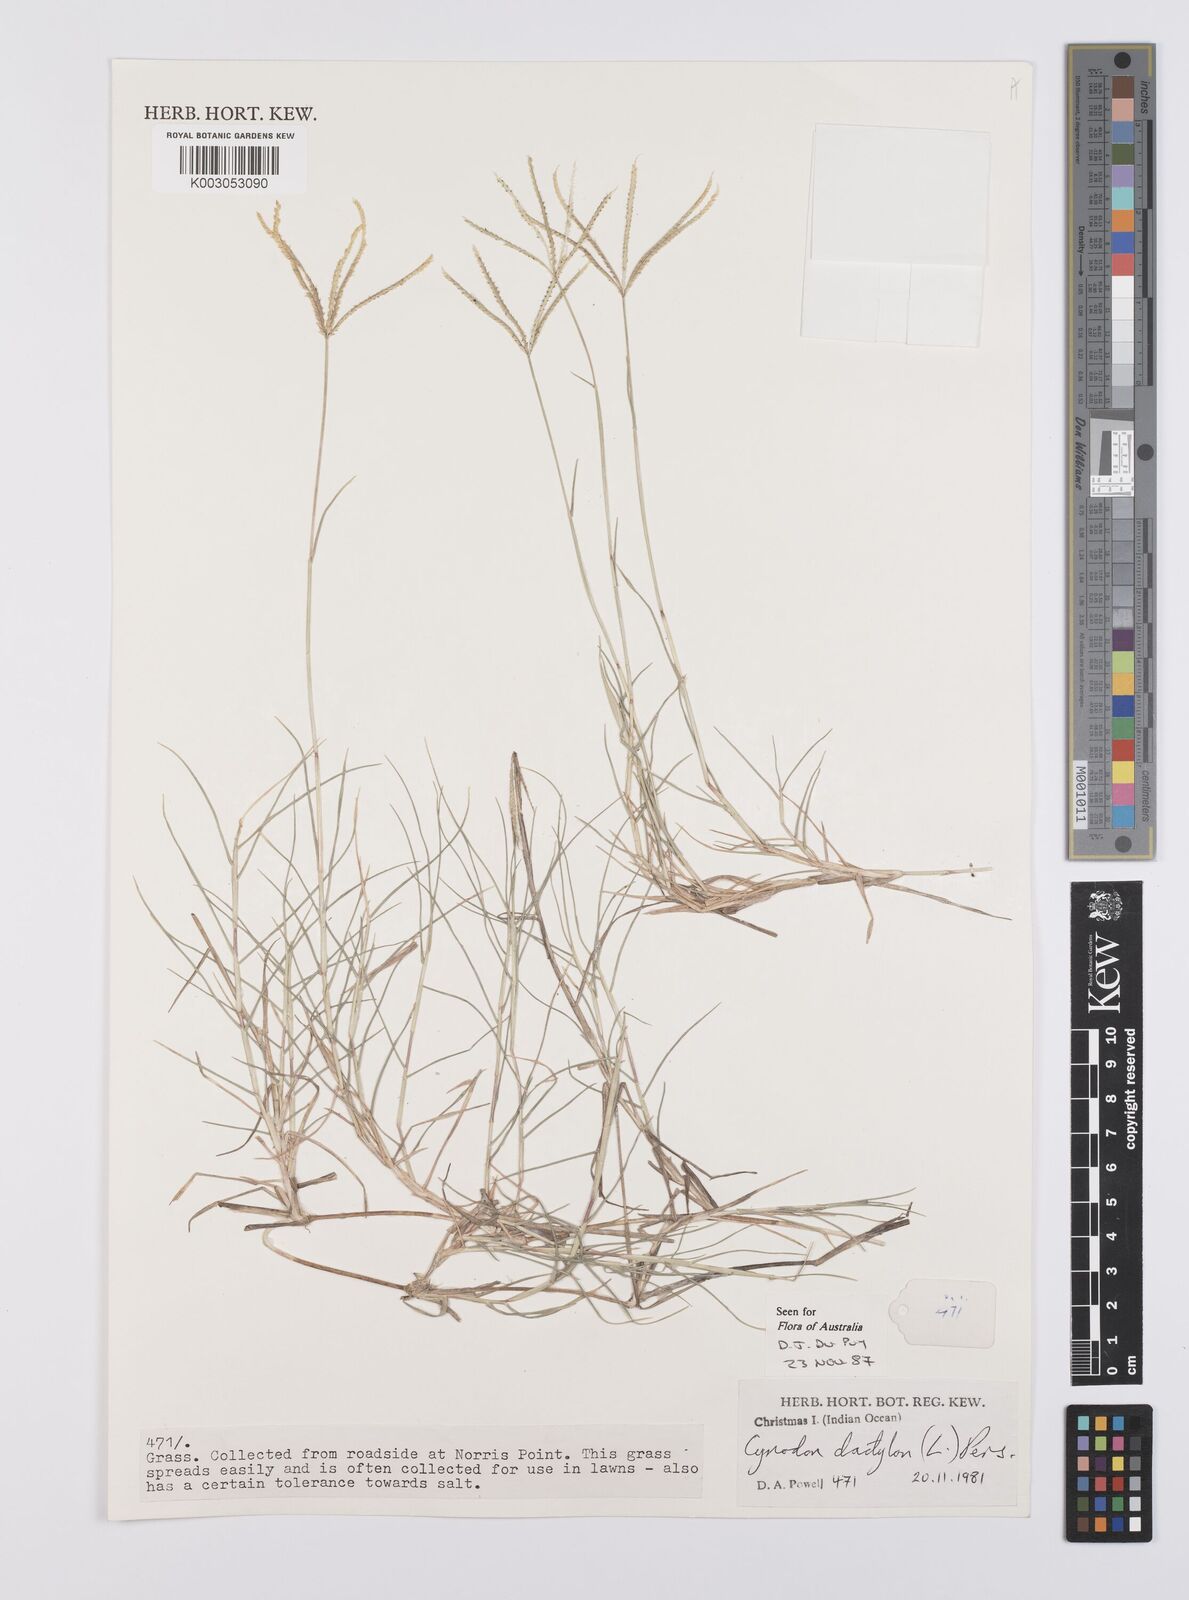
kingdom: Plantae
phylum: Tracheophyta
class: Liliopsida
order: Poales
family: Poaceae
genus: Cynodon
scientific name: Cynodon dactylon
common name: Bermuda grass
